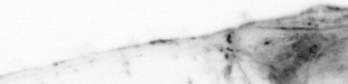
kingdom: Animalia
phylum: Chaetognatha
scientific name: Chaetognatha
